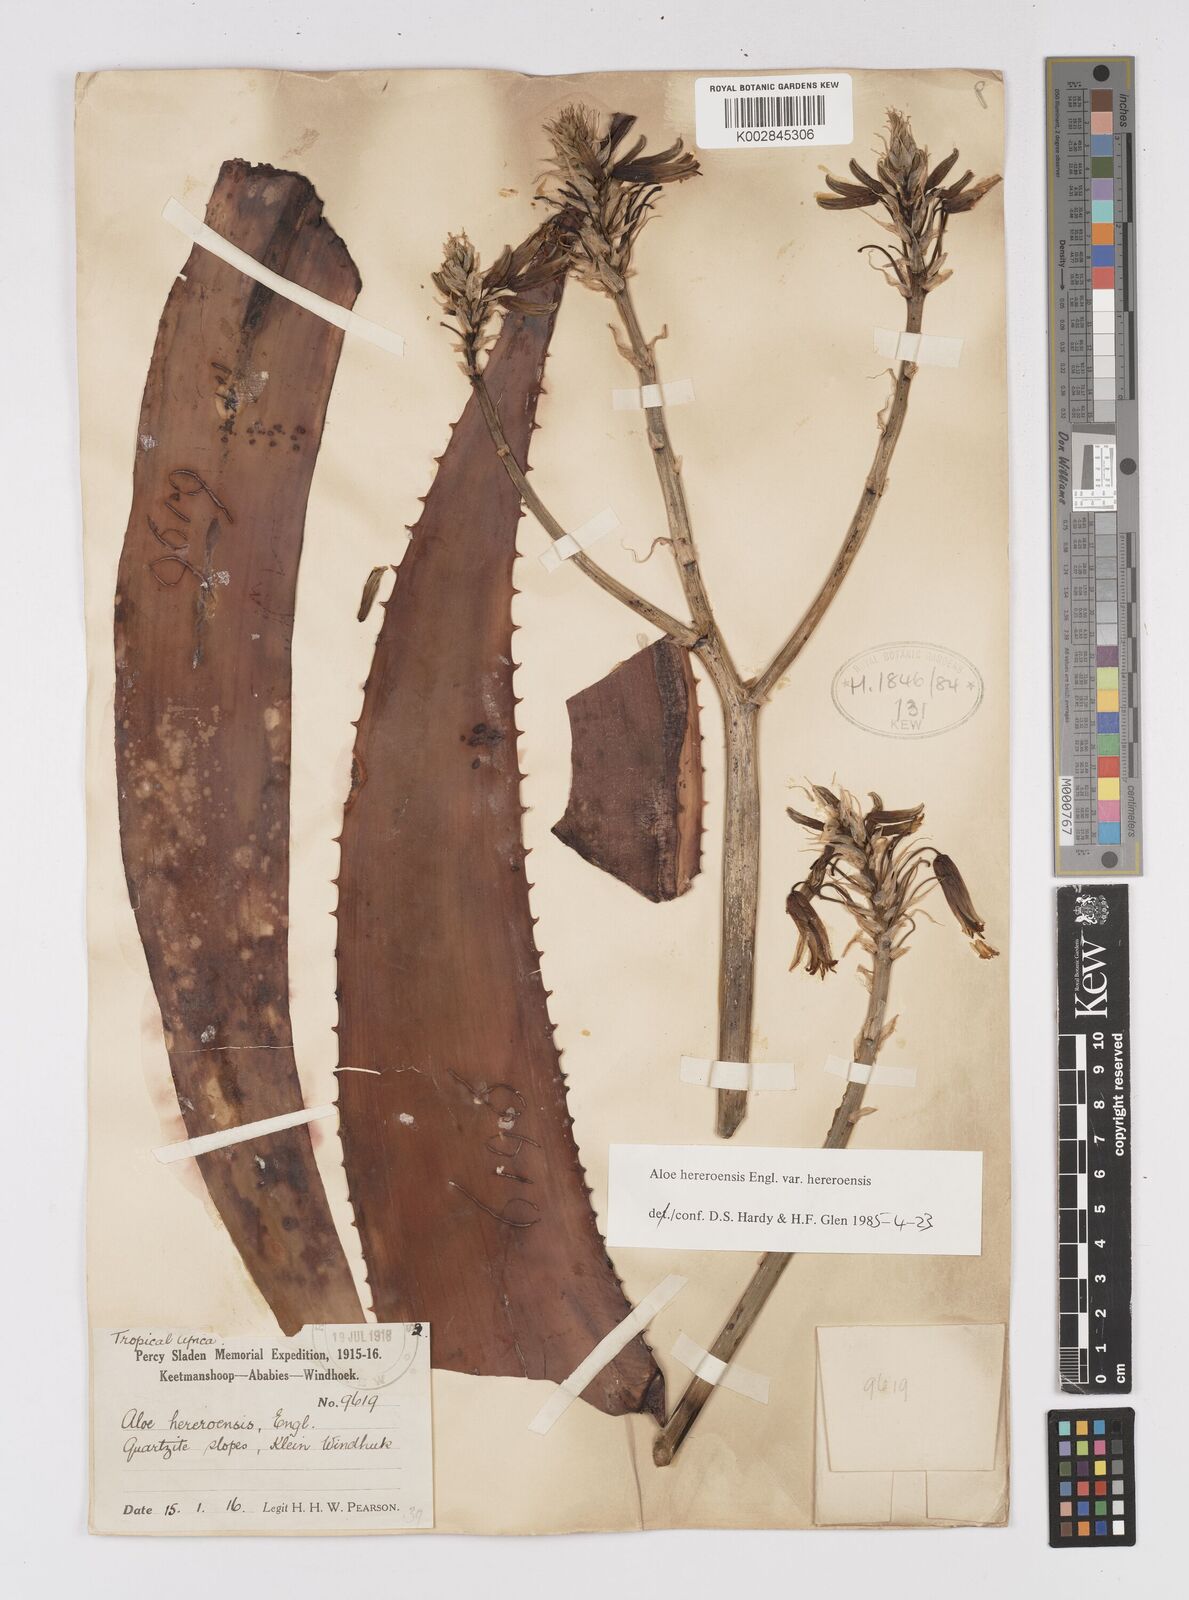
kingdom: Plantae
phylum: Tracheophyta
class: Liliopsida
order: Asparagales
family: Asphodelaceae
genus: Aloe
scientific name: Aloe hereroensis
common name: Herero aloe
